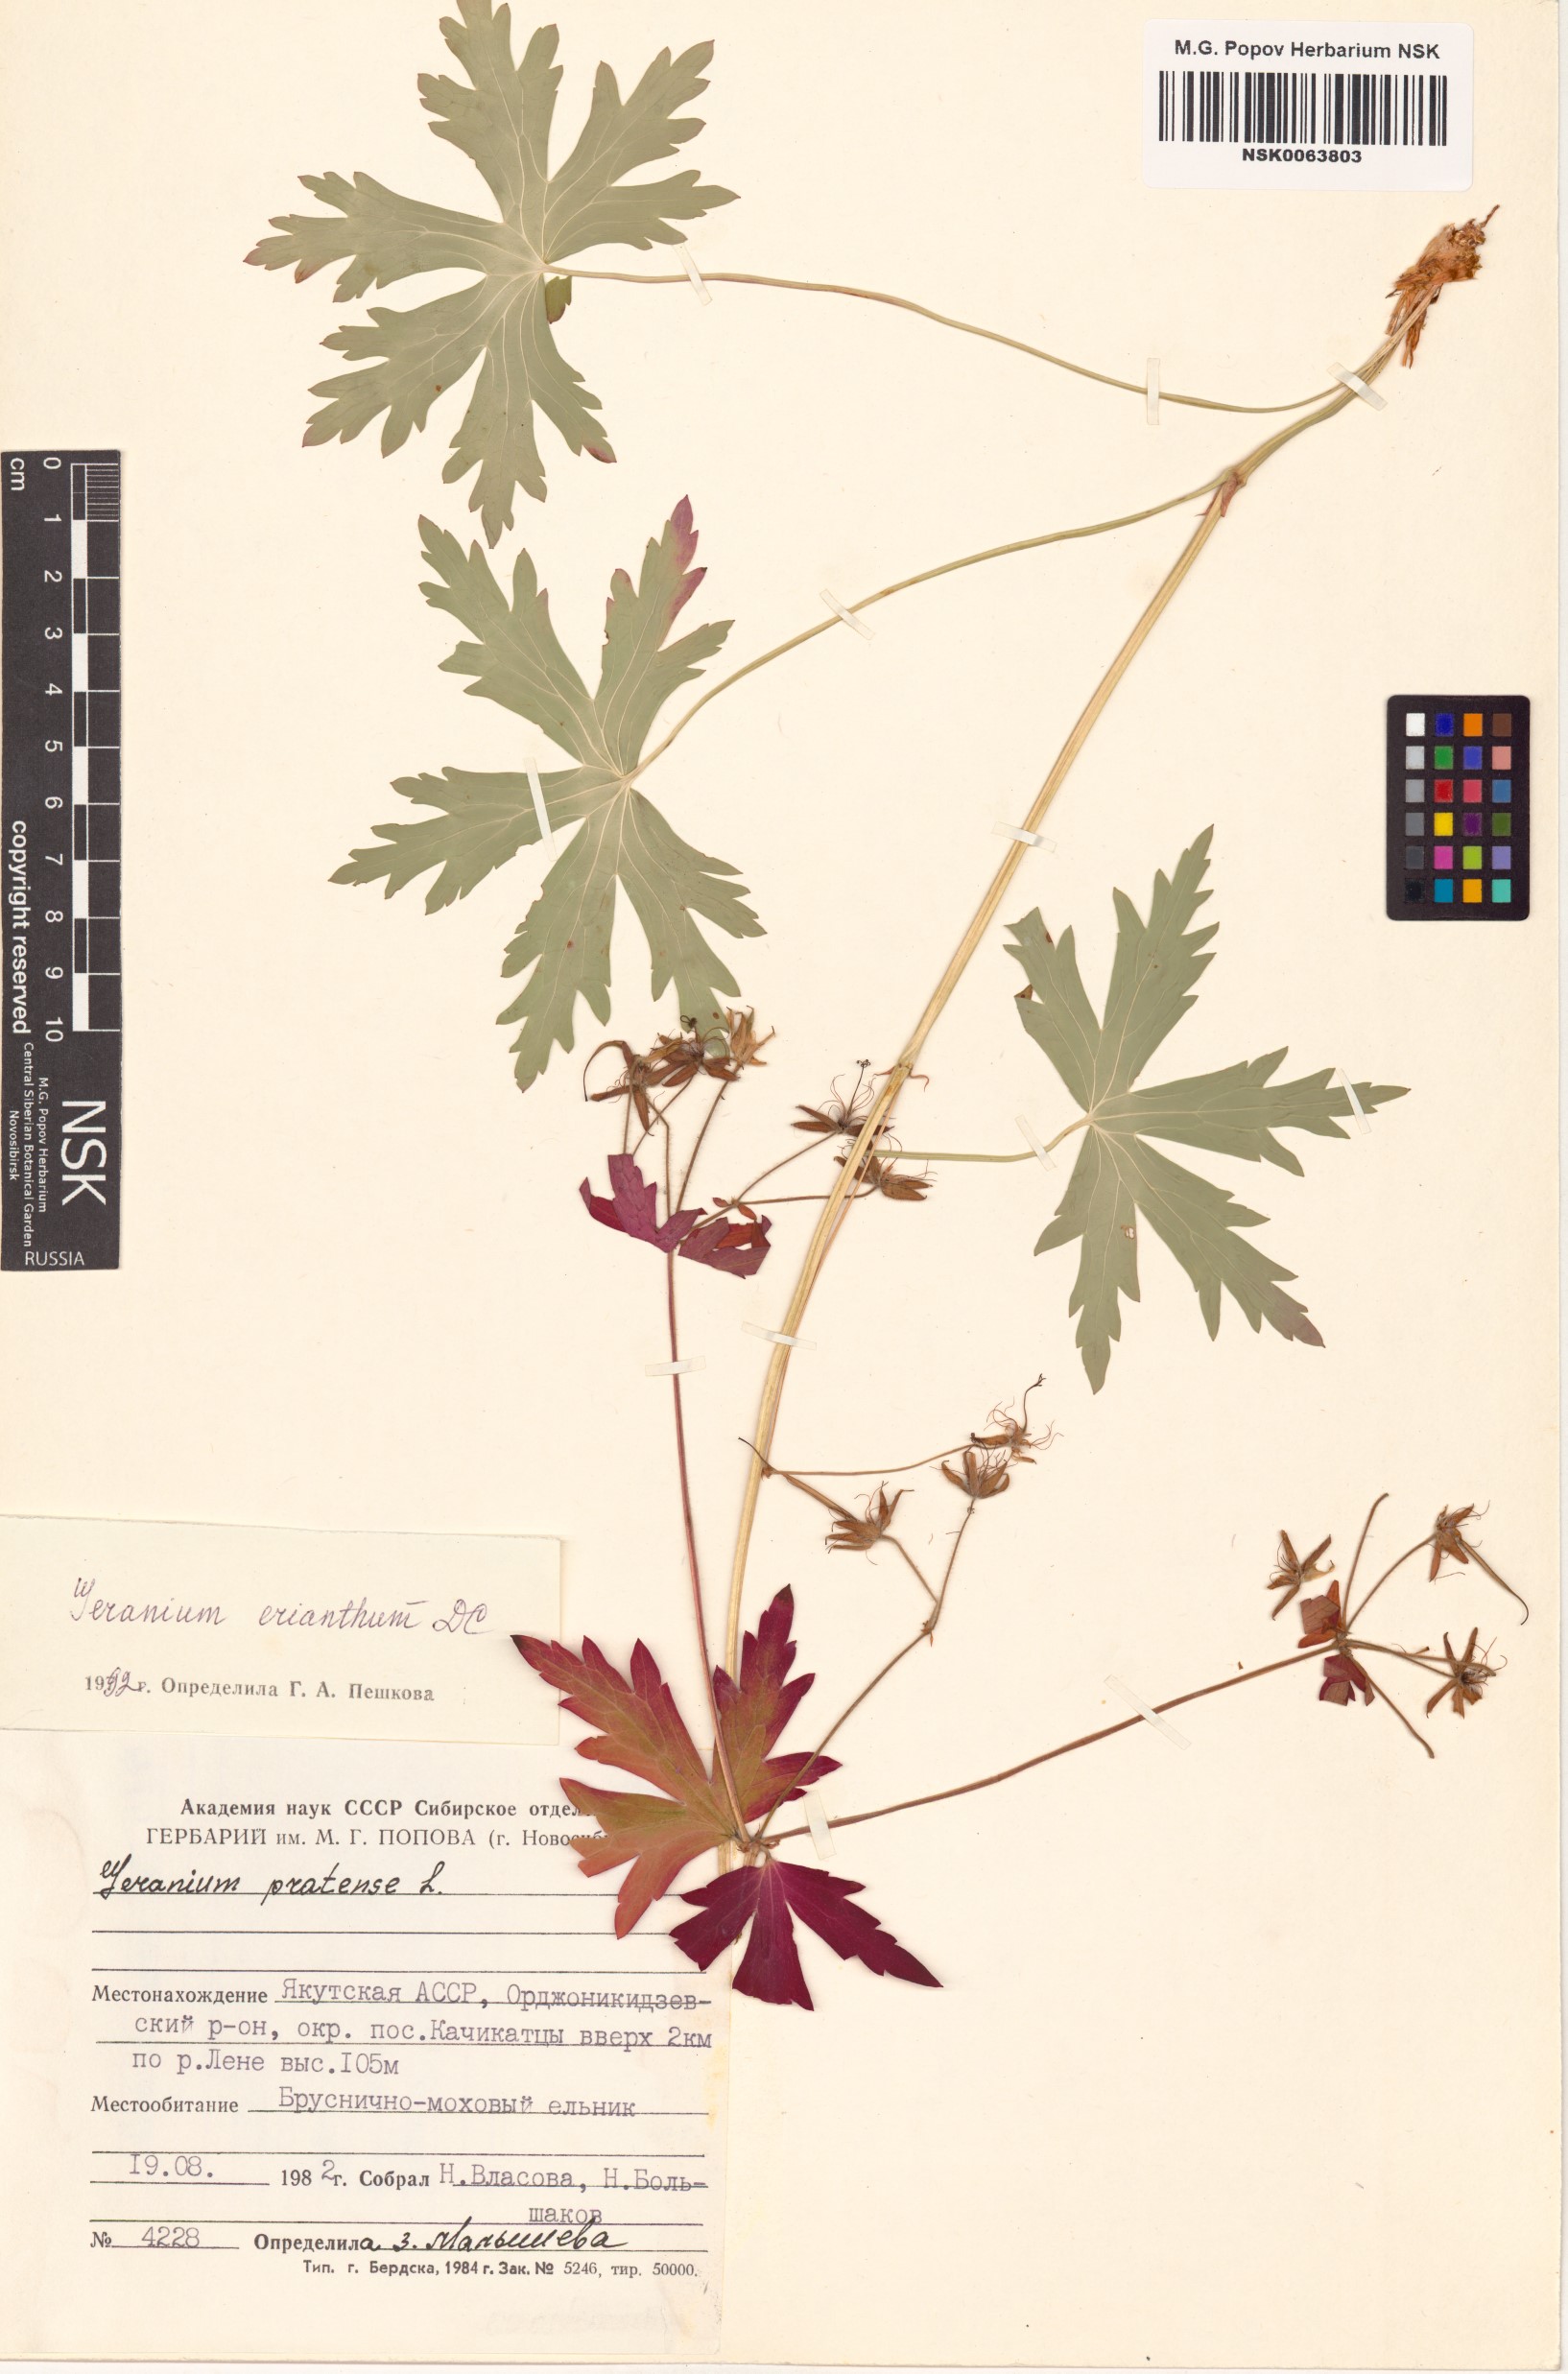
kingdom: Plantae
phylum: Tracheophyta
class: Magnoliopsida
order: Geraniales
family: Geraniaceae
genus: Geranium
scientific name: Geranium erianthum
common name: Northern crane's-bill
